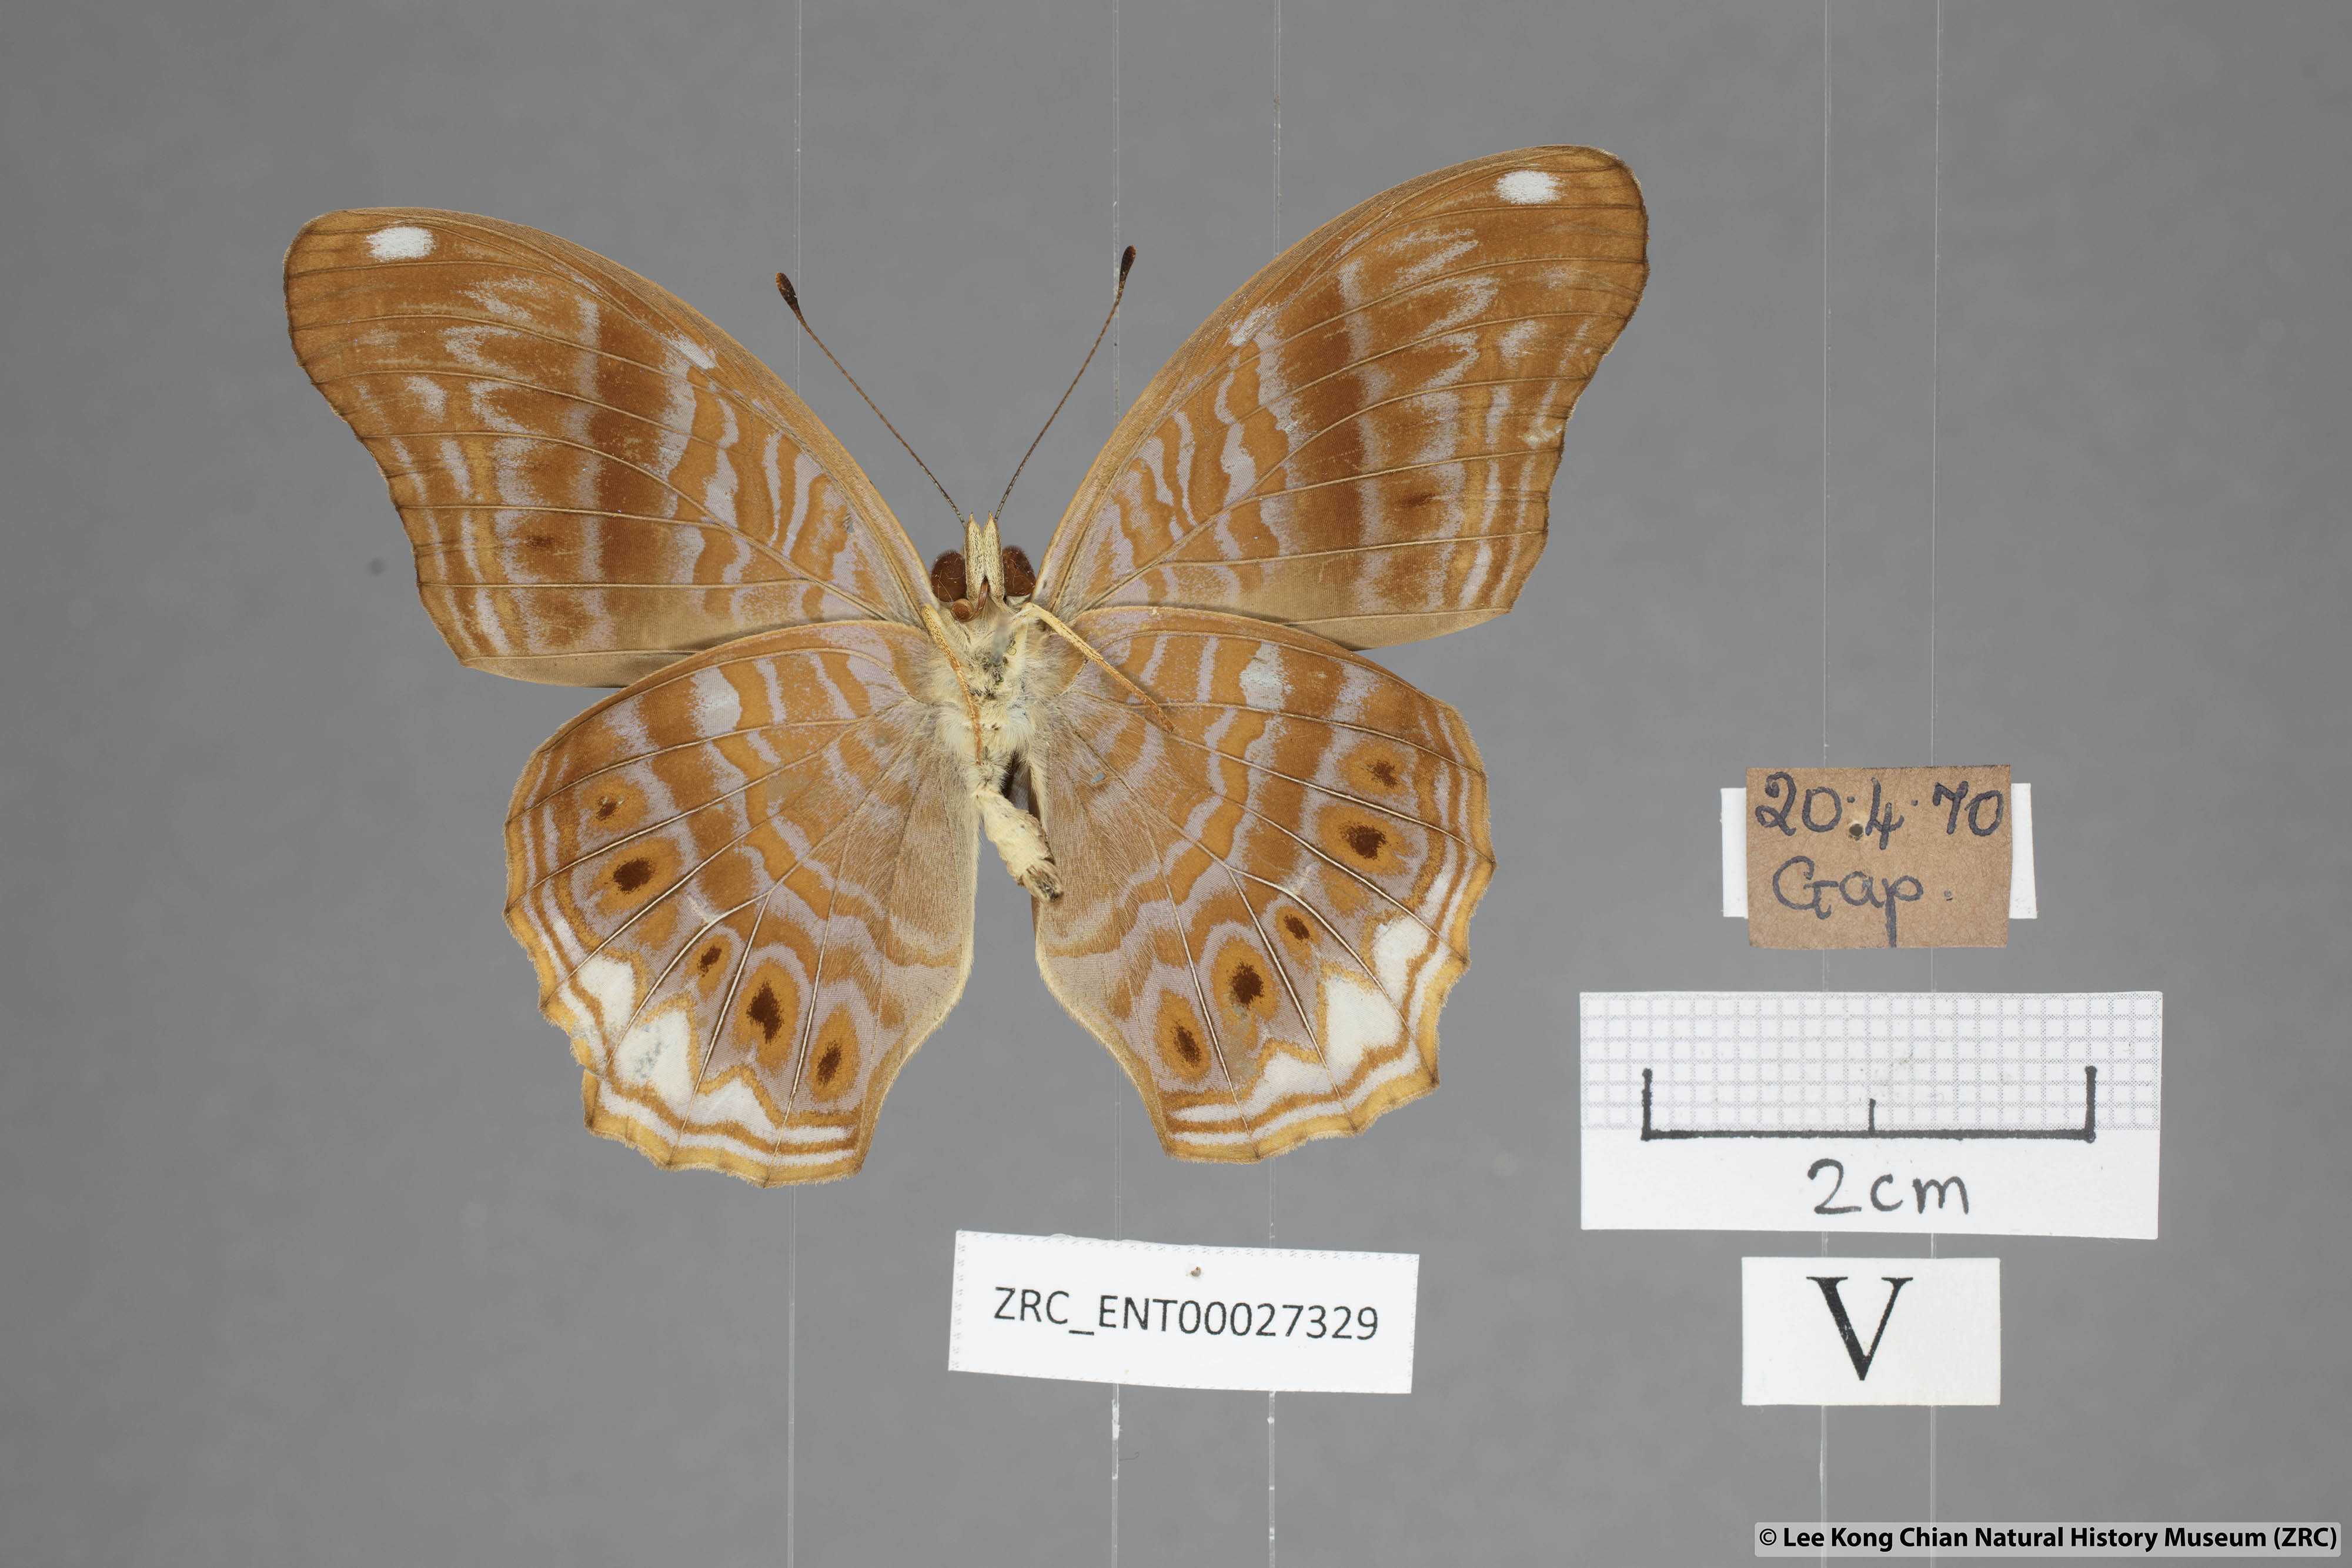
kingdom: Animalia
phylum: Arthropoda
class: Insecta
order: Lepidoptera
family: Nymphalidae
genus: Terinos
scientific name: Terinos terpander
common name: Royal assyrian
